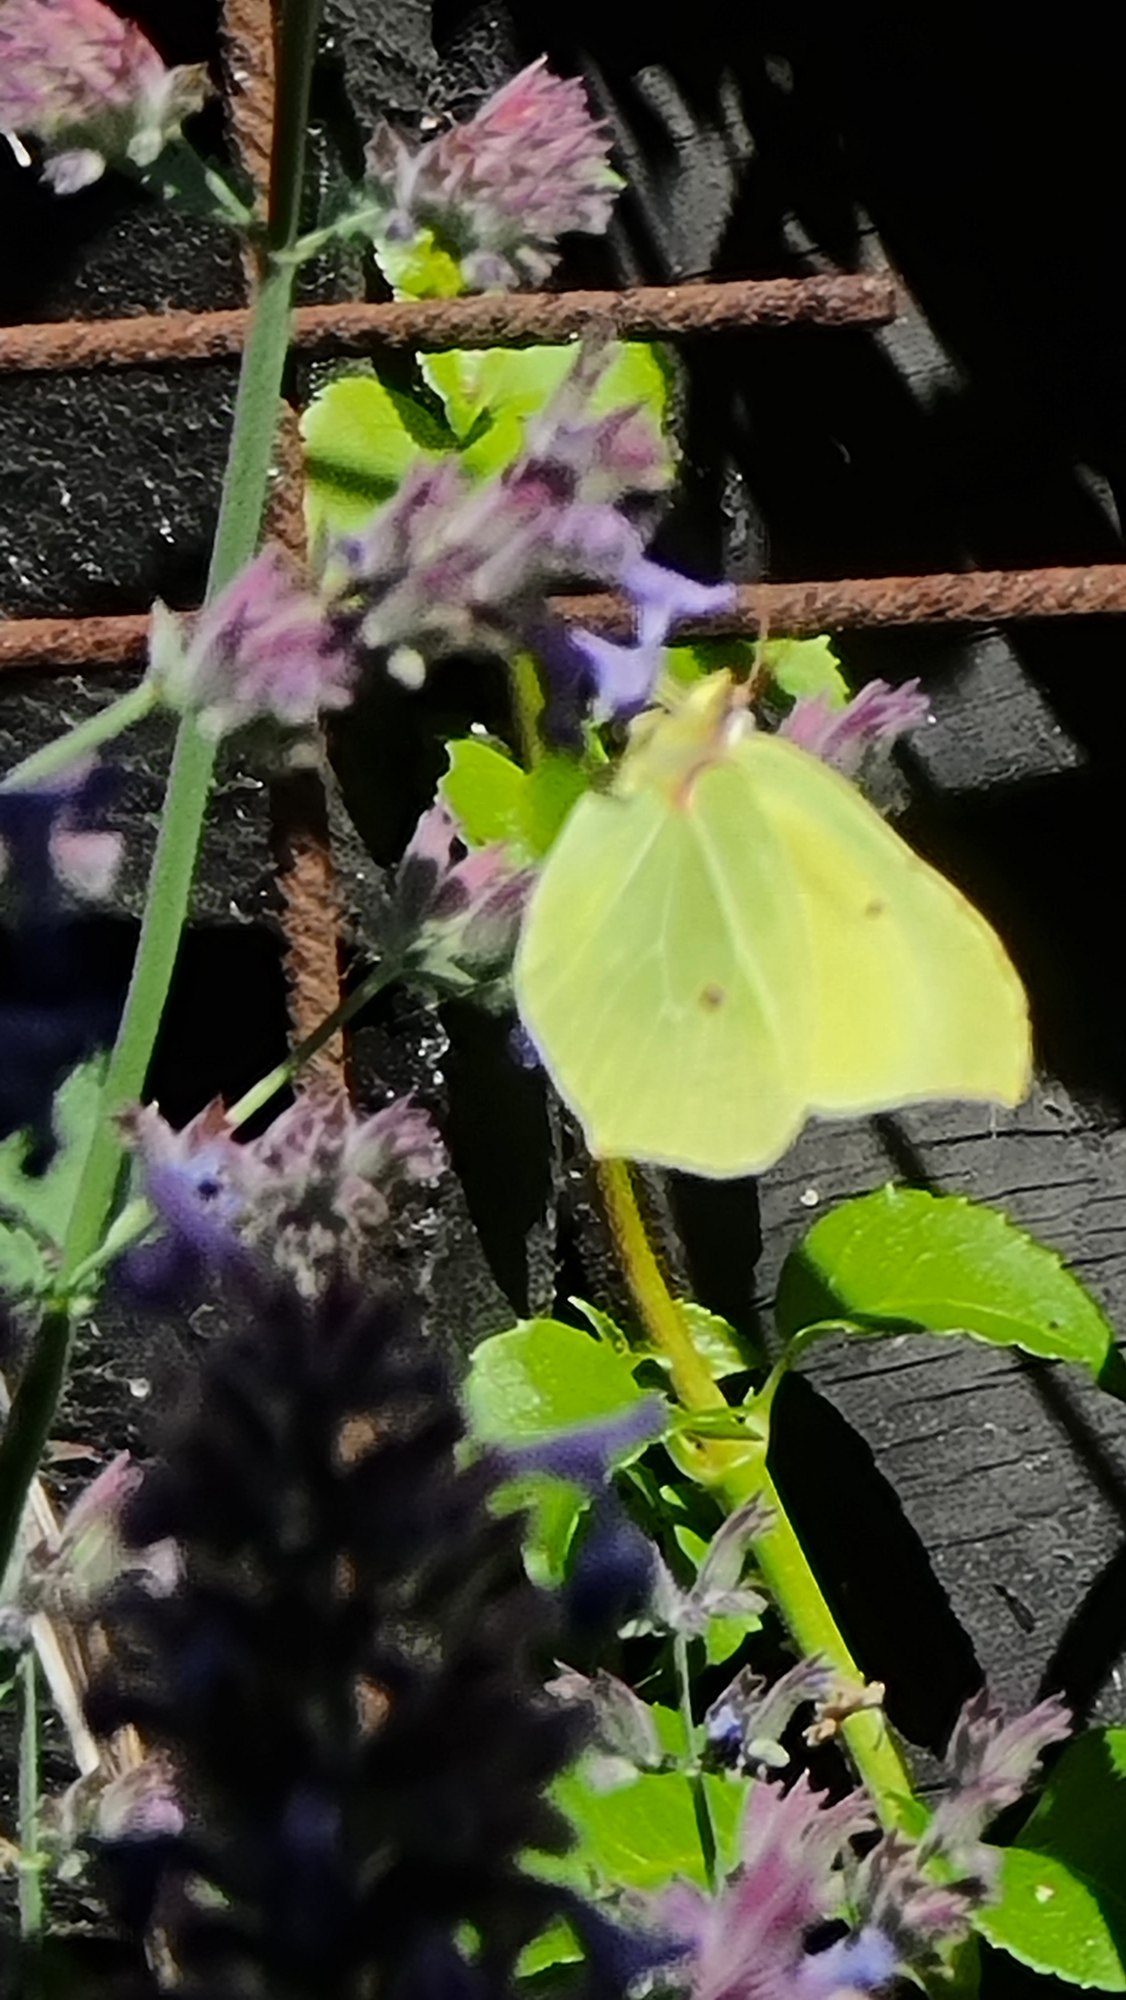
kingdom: Animalia
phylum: Arthropoda
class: Insecta
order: Lepidoptera
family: Pieridae
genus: Gonepteryx
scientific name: Gonepteryx rhamni
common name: Citronsommerfugl
